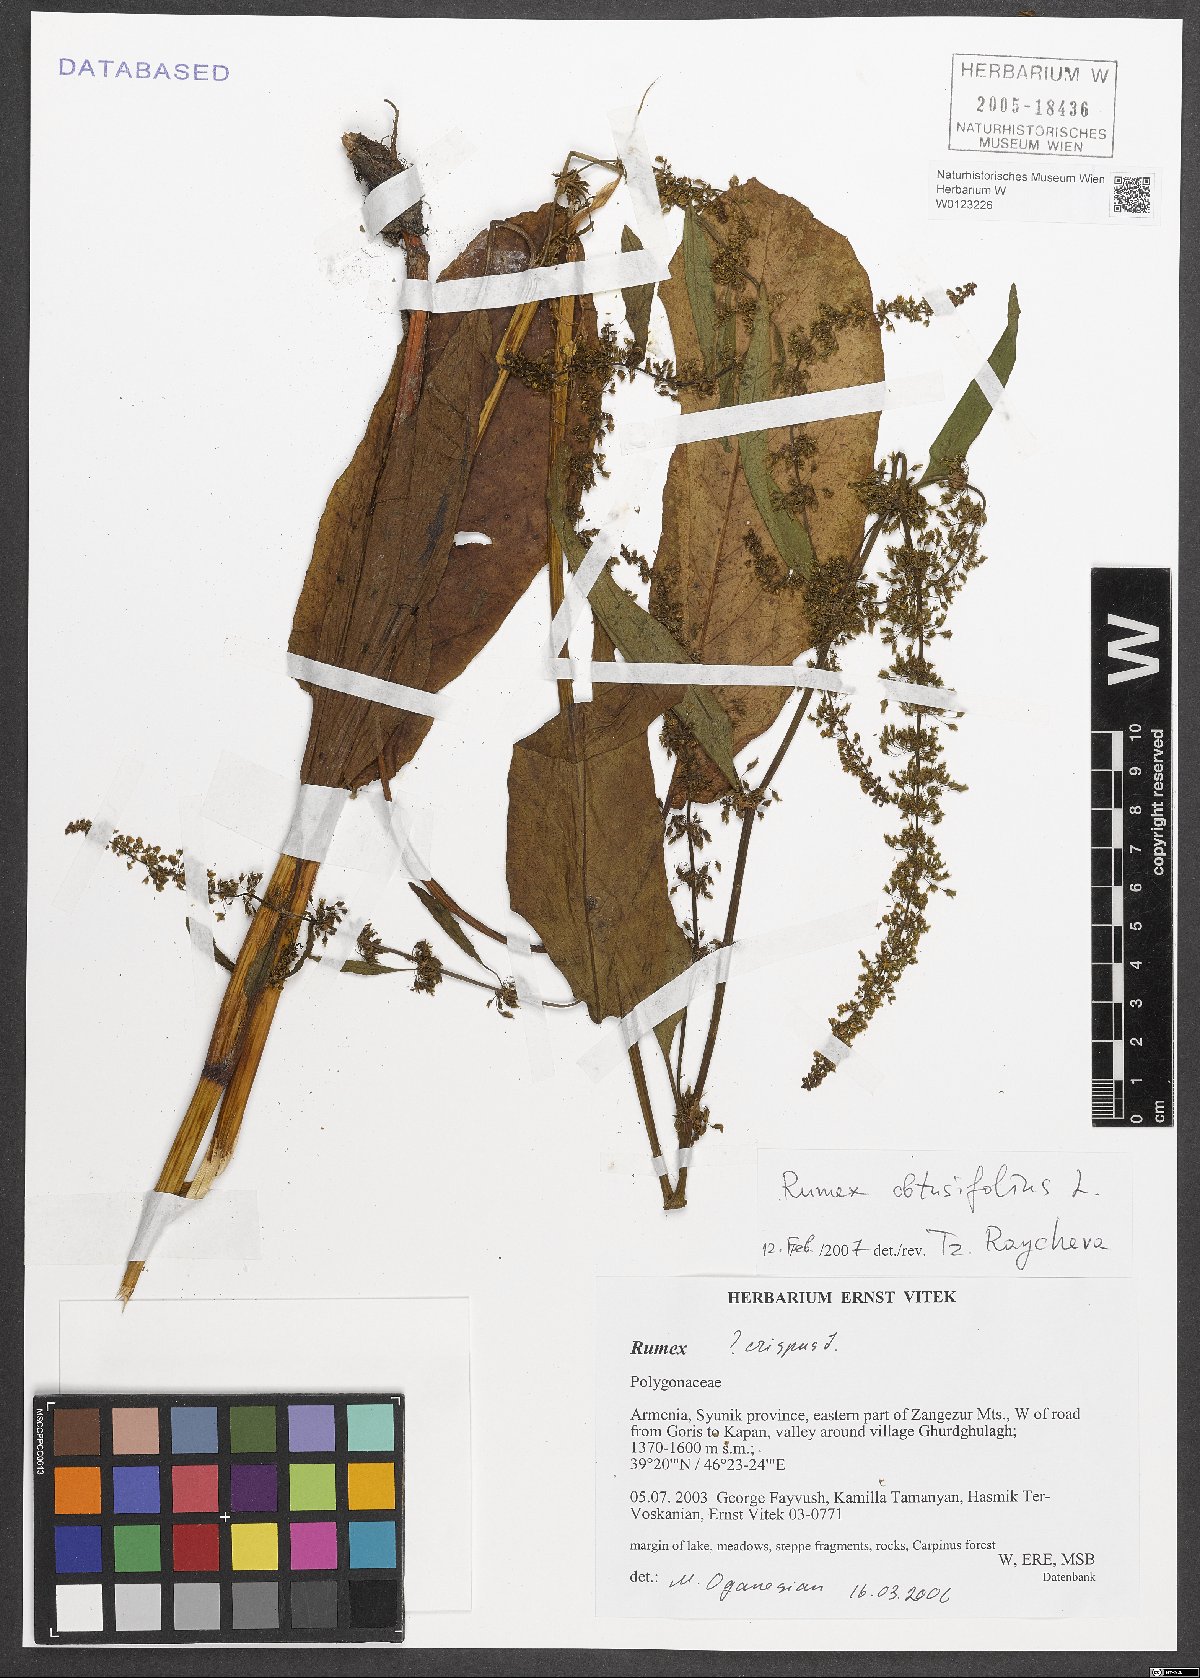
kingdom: Plantae
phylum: Tracheophyta
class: Magnoliopsida
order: Caryophyllales
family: Polygonaceae
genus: Rumex
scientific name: Rumex obtusifolius
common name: Bitter dock
